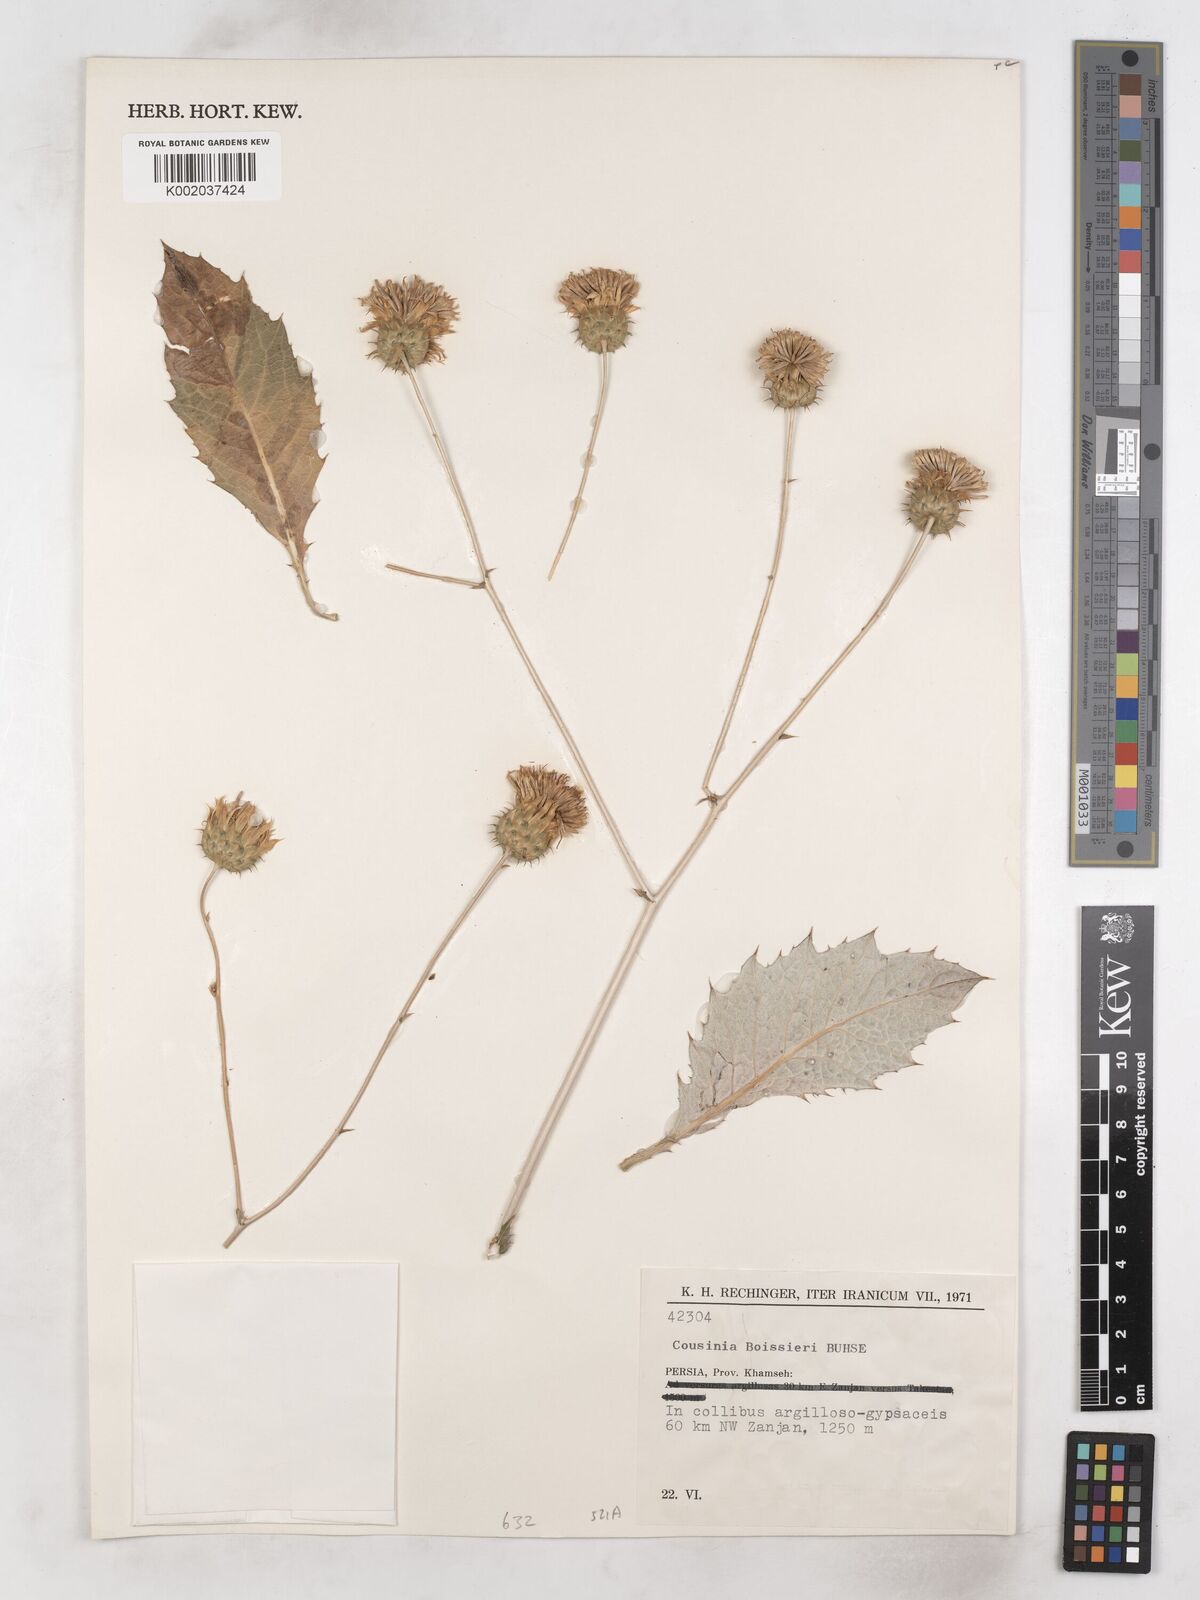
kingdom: Plantae
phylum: Tracheophyta
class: Magnoliopsida
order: Asterales
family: Asteraceae
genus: Cousinia
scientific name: Cousinia boissieri
